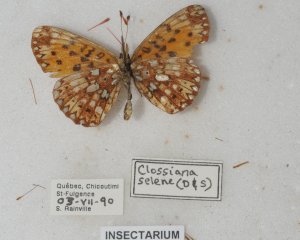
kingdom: Animalia
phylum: Arthropoda
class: Insecta
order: Lepidoptera
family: Nymphalidae
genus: Boloria
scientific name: Boloria selene
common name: Silver-bordered Fritillary
